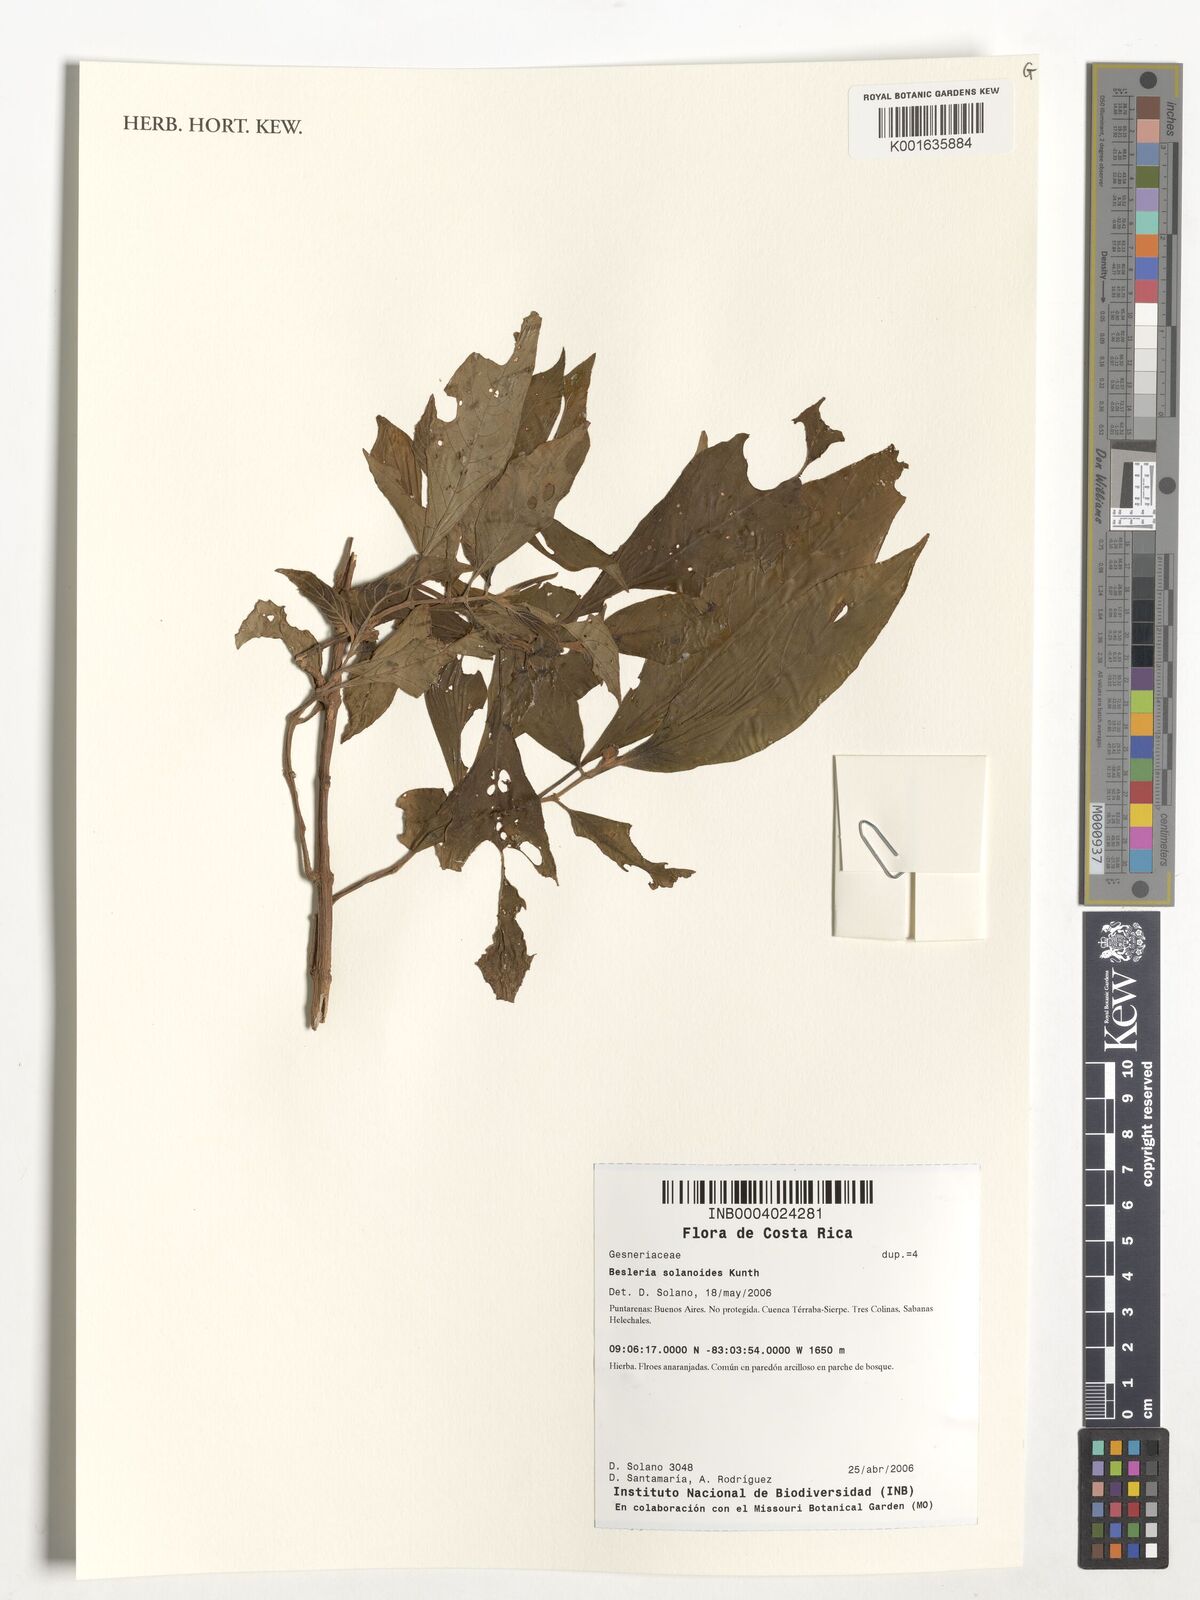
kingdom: Plantae
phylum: Tracheophyta
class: Magnoliopsida
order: Lamiales
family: Gesneriaceae
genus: Besleria
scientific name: Besleria solanoides
